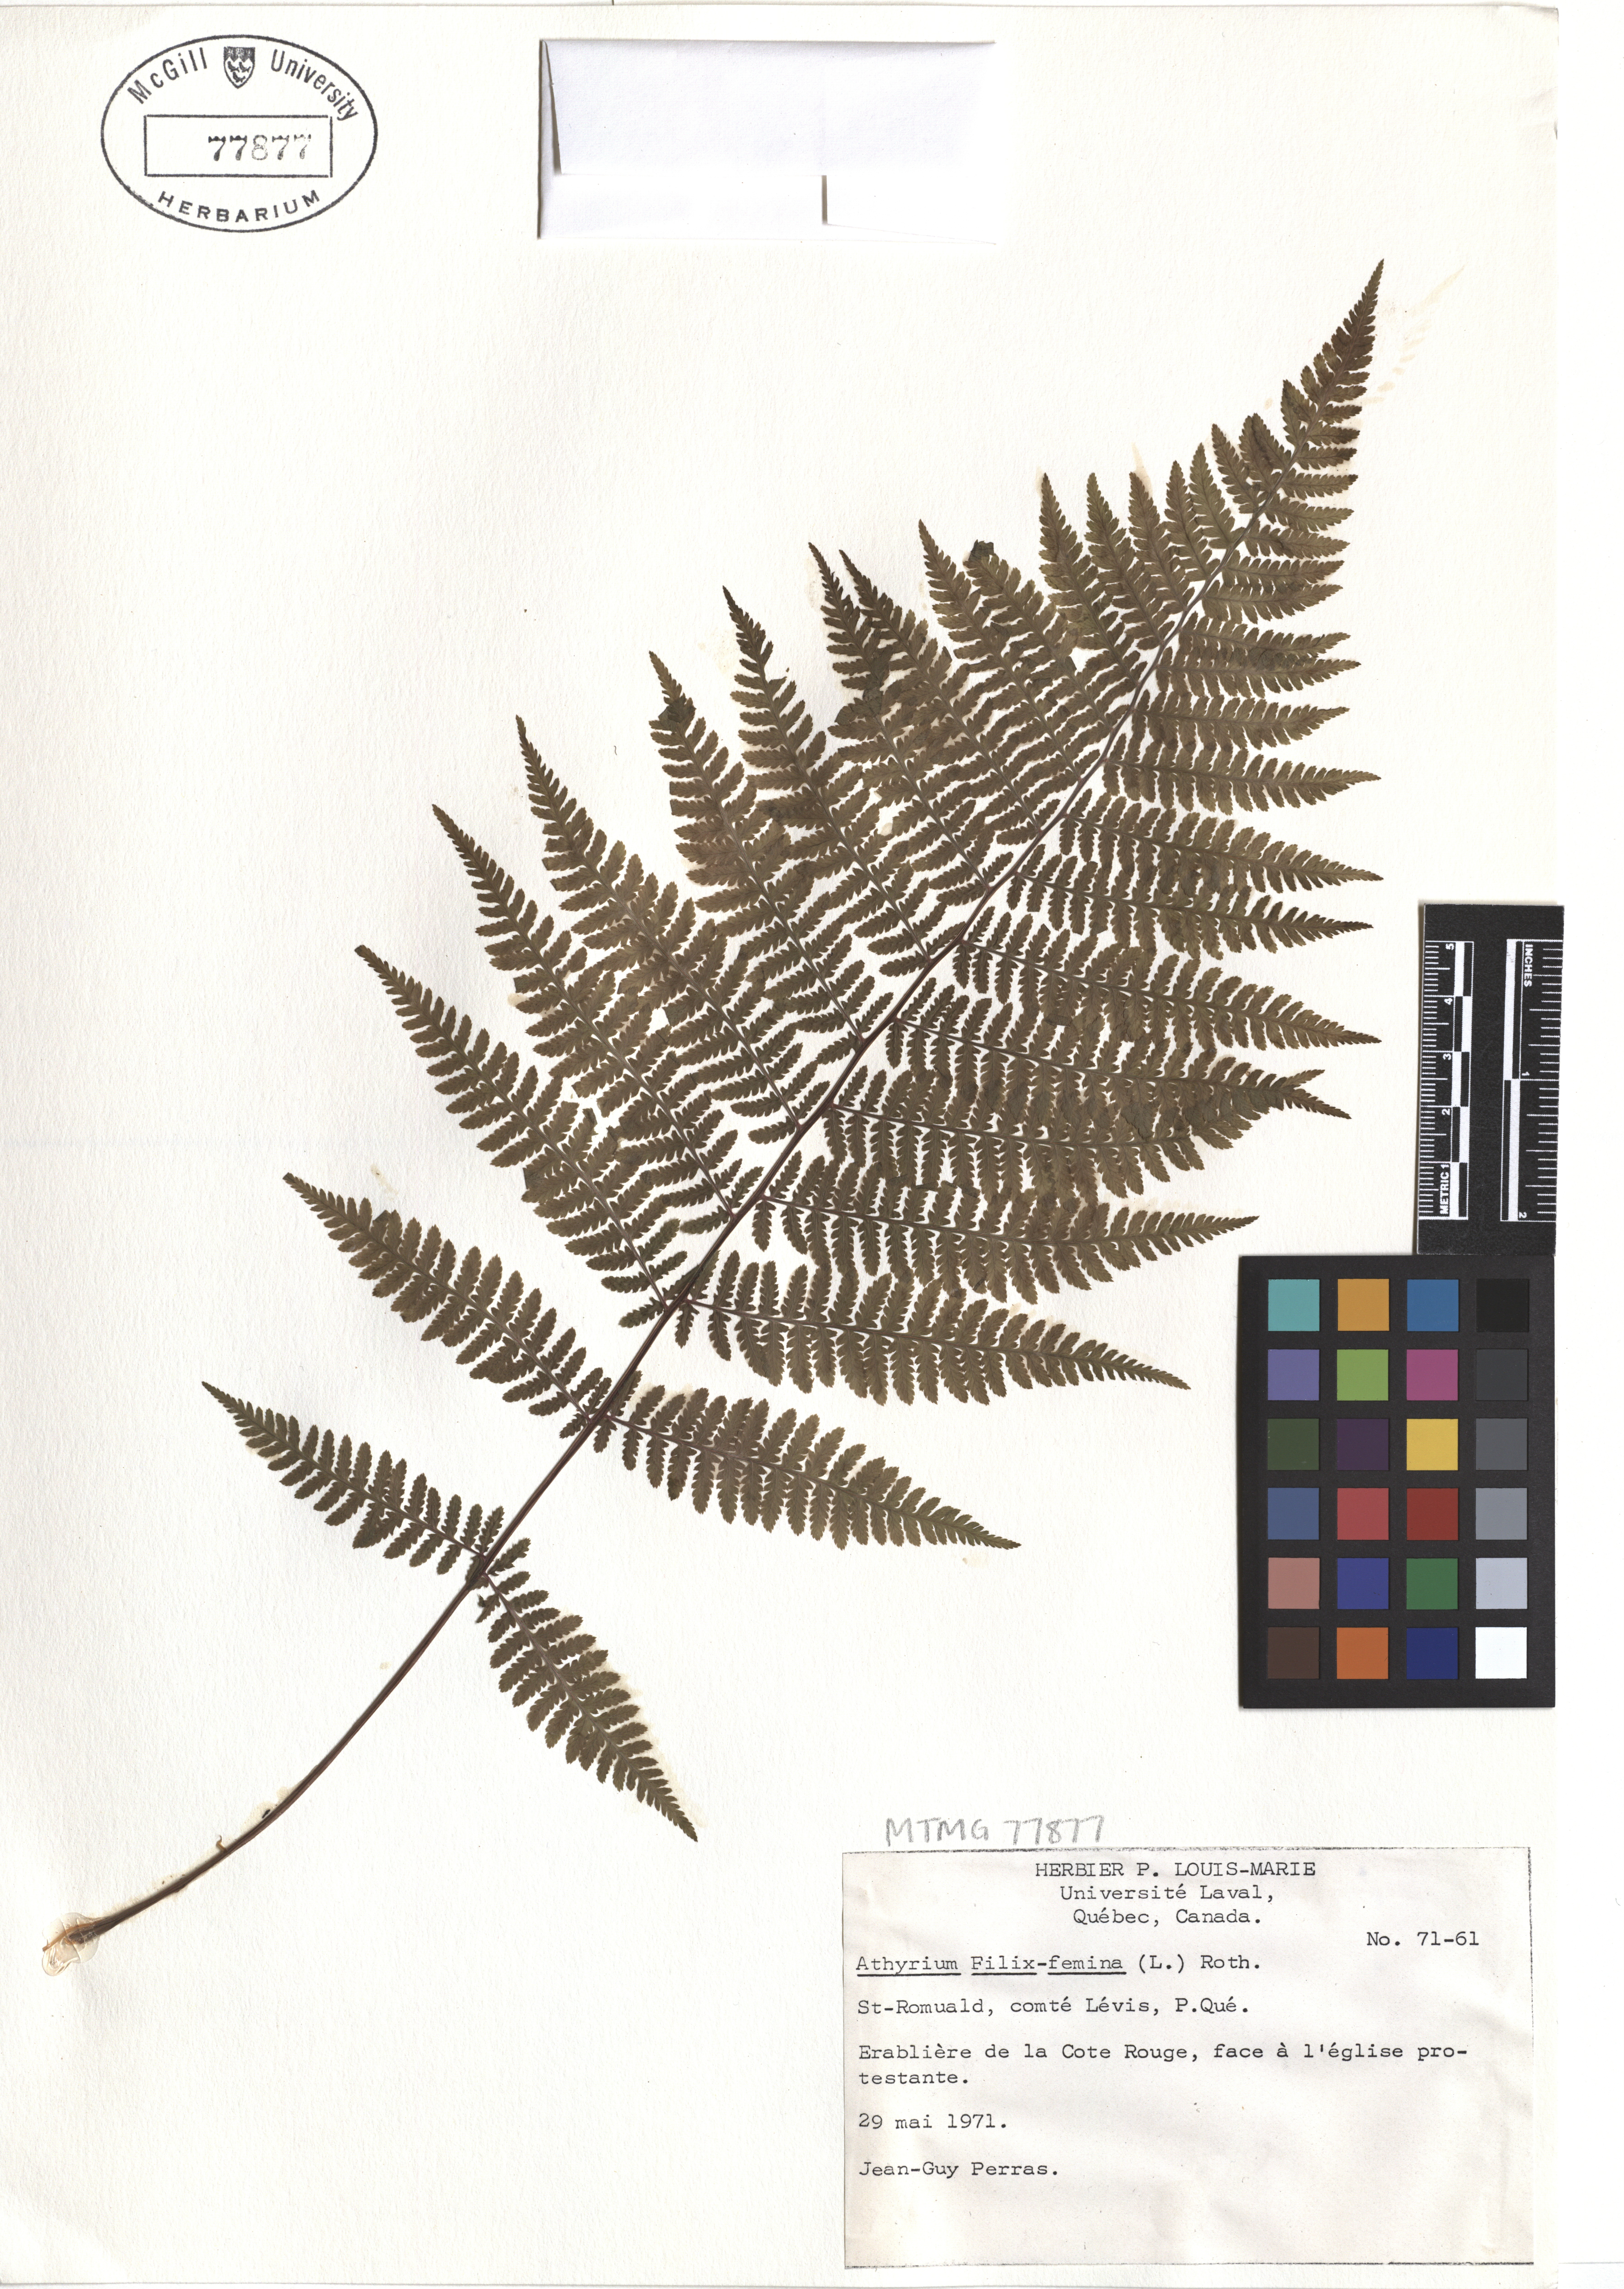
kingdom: Plantae
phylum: Tracheophyta
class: Polypodiopsida
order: Polypodiales
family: Athyriaceae
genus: Athyrium
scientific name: Athyrium filix-femina
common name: Lady fern
